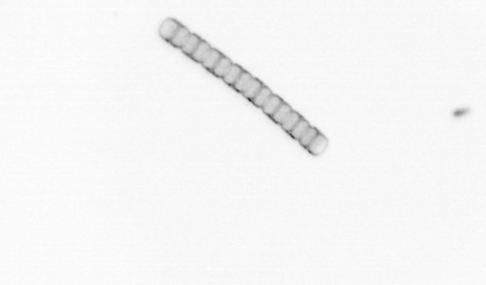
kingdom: Chromista
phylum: Ochrophyta
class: Bacillariophyceae
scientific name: Bacillariophyceae
